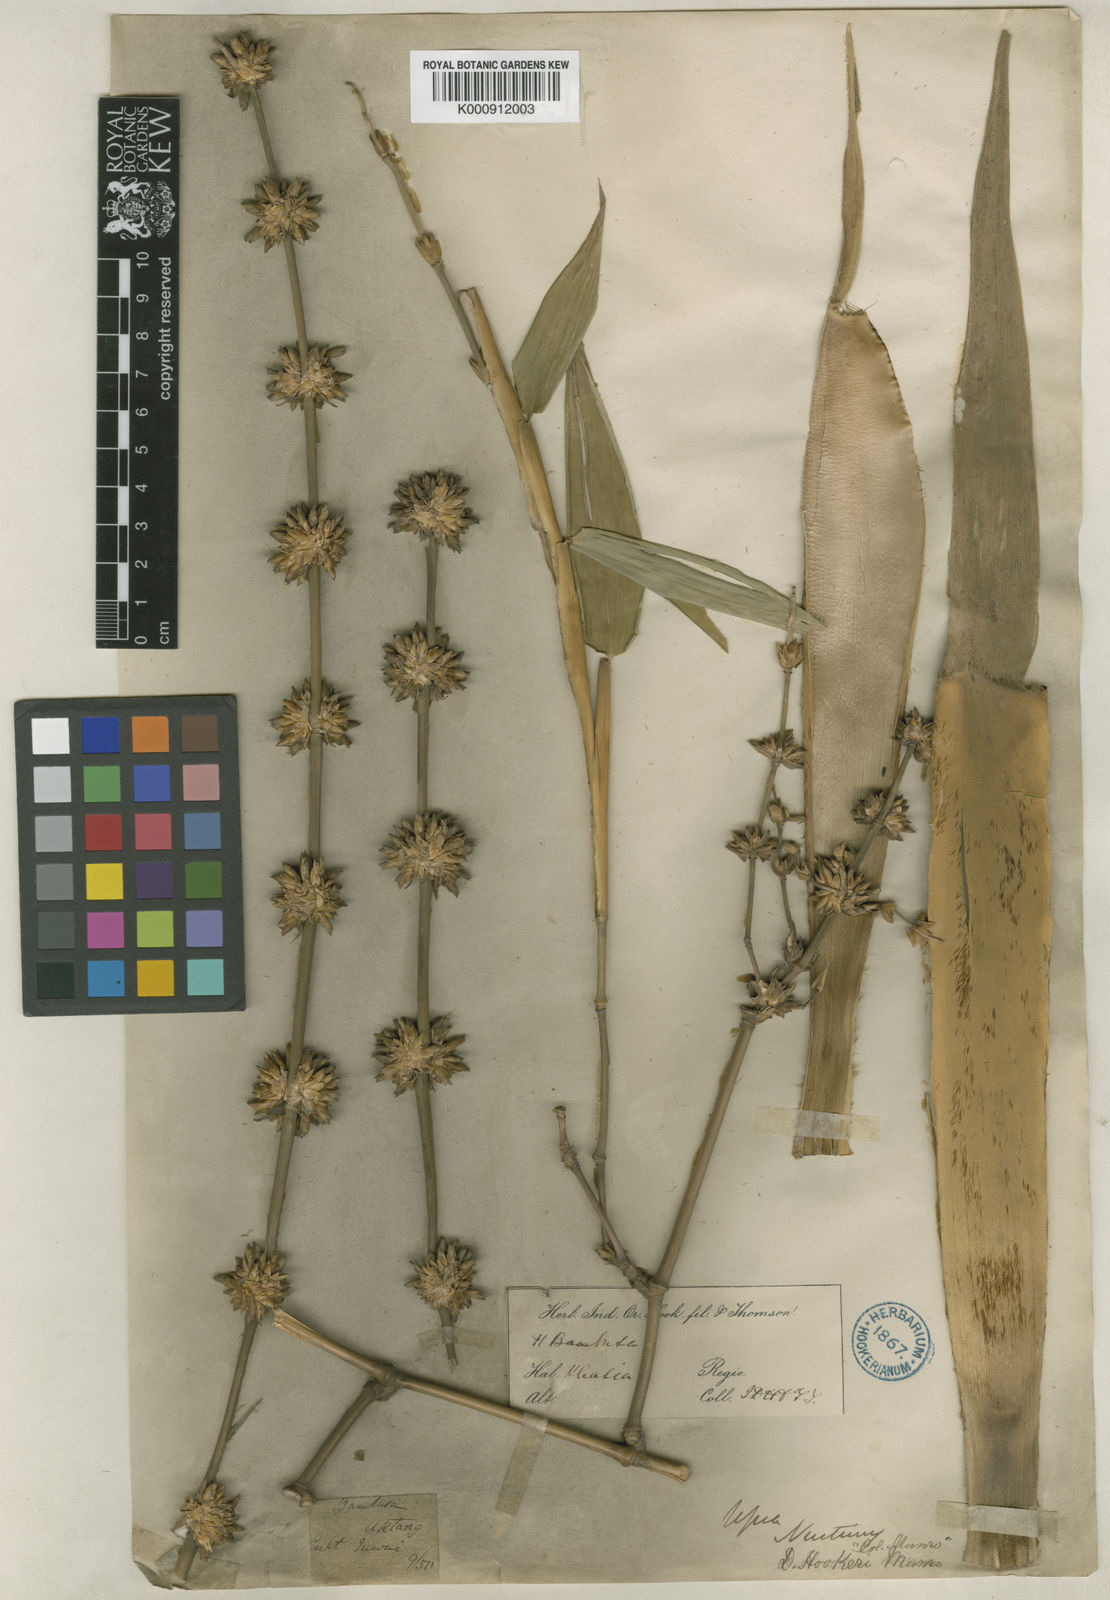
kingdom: Plantae
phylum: Tracheophyta
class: Liliopsida
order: Poales
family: Poaceae
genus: Dendrocalamus
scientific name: Dendrocalamus hookeri
